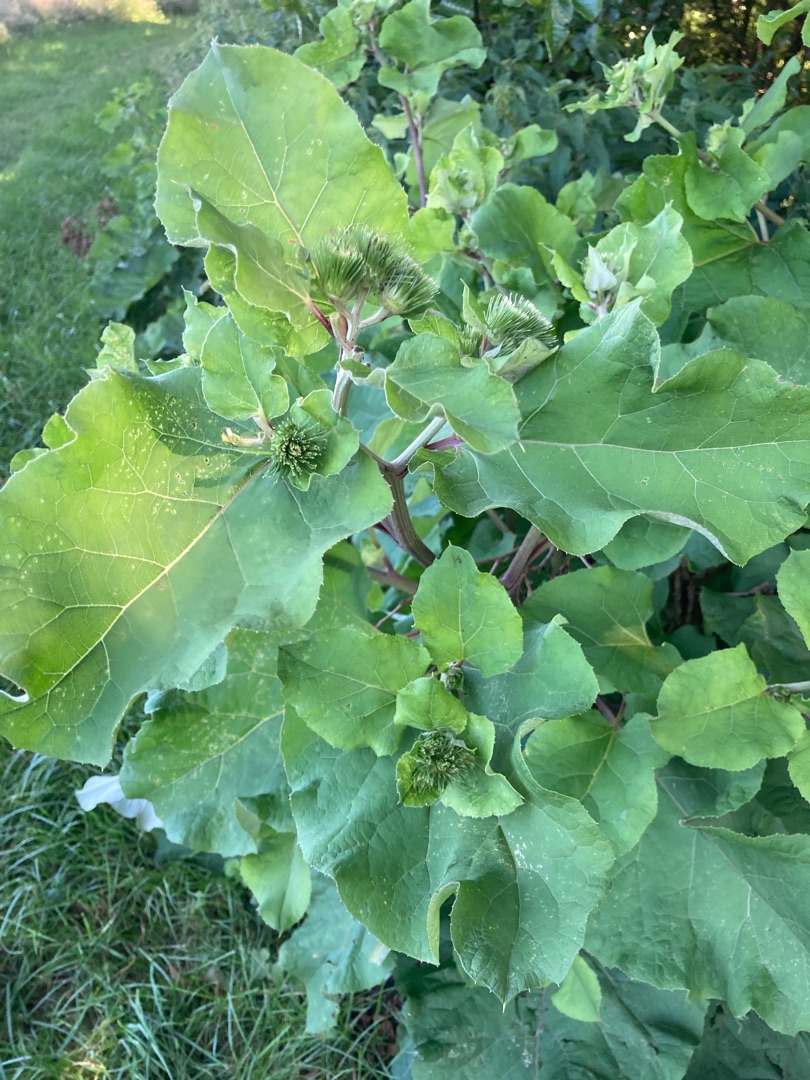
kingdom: Plantae
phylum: Tracheophyta
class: Magnoliopsida
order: Asterales
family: Asteraceae
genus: Arctium
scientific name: Arctium lappa
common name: Glat burre
